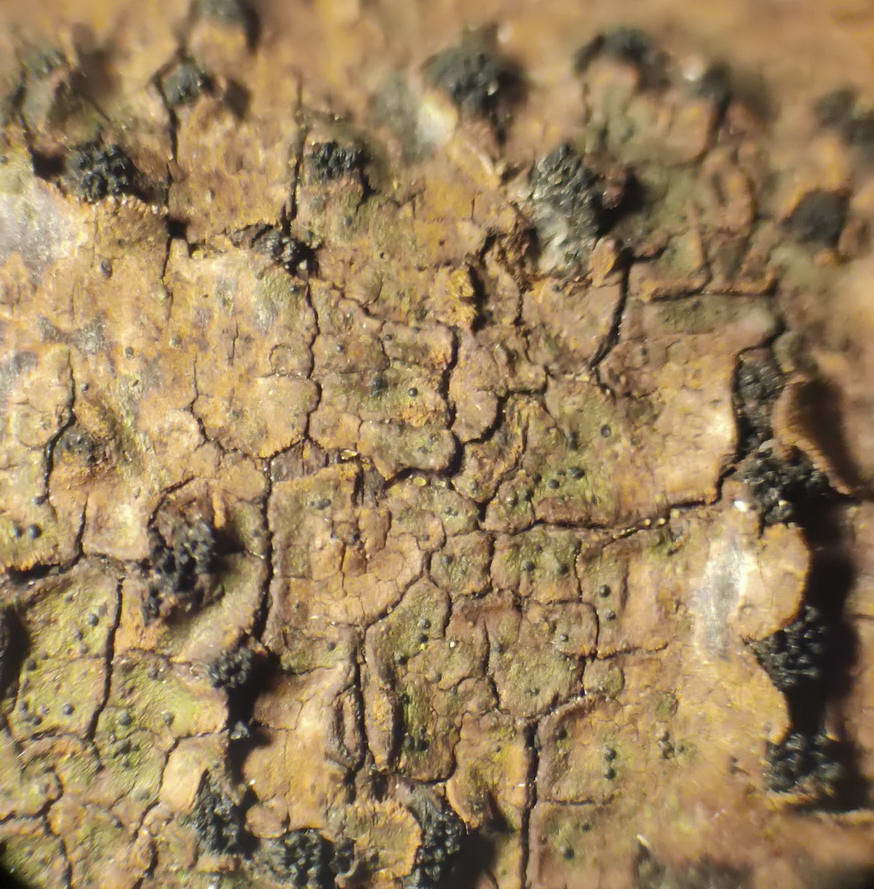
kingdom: Fungi
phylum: Ascomycota
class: Sordariomycetes
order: Xylariales
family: Diatrypaceae
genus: Eutypella
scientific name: Eutypella prunastri
